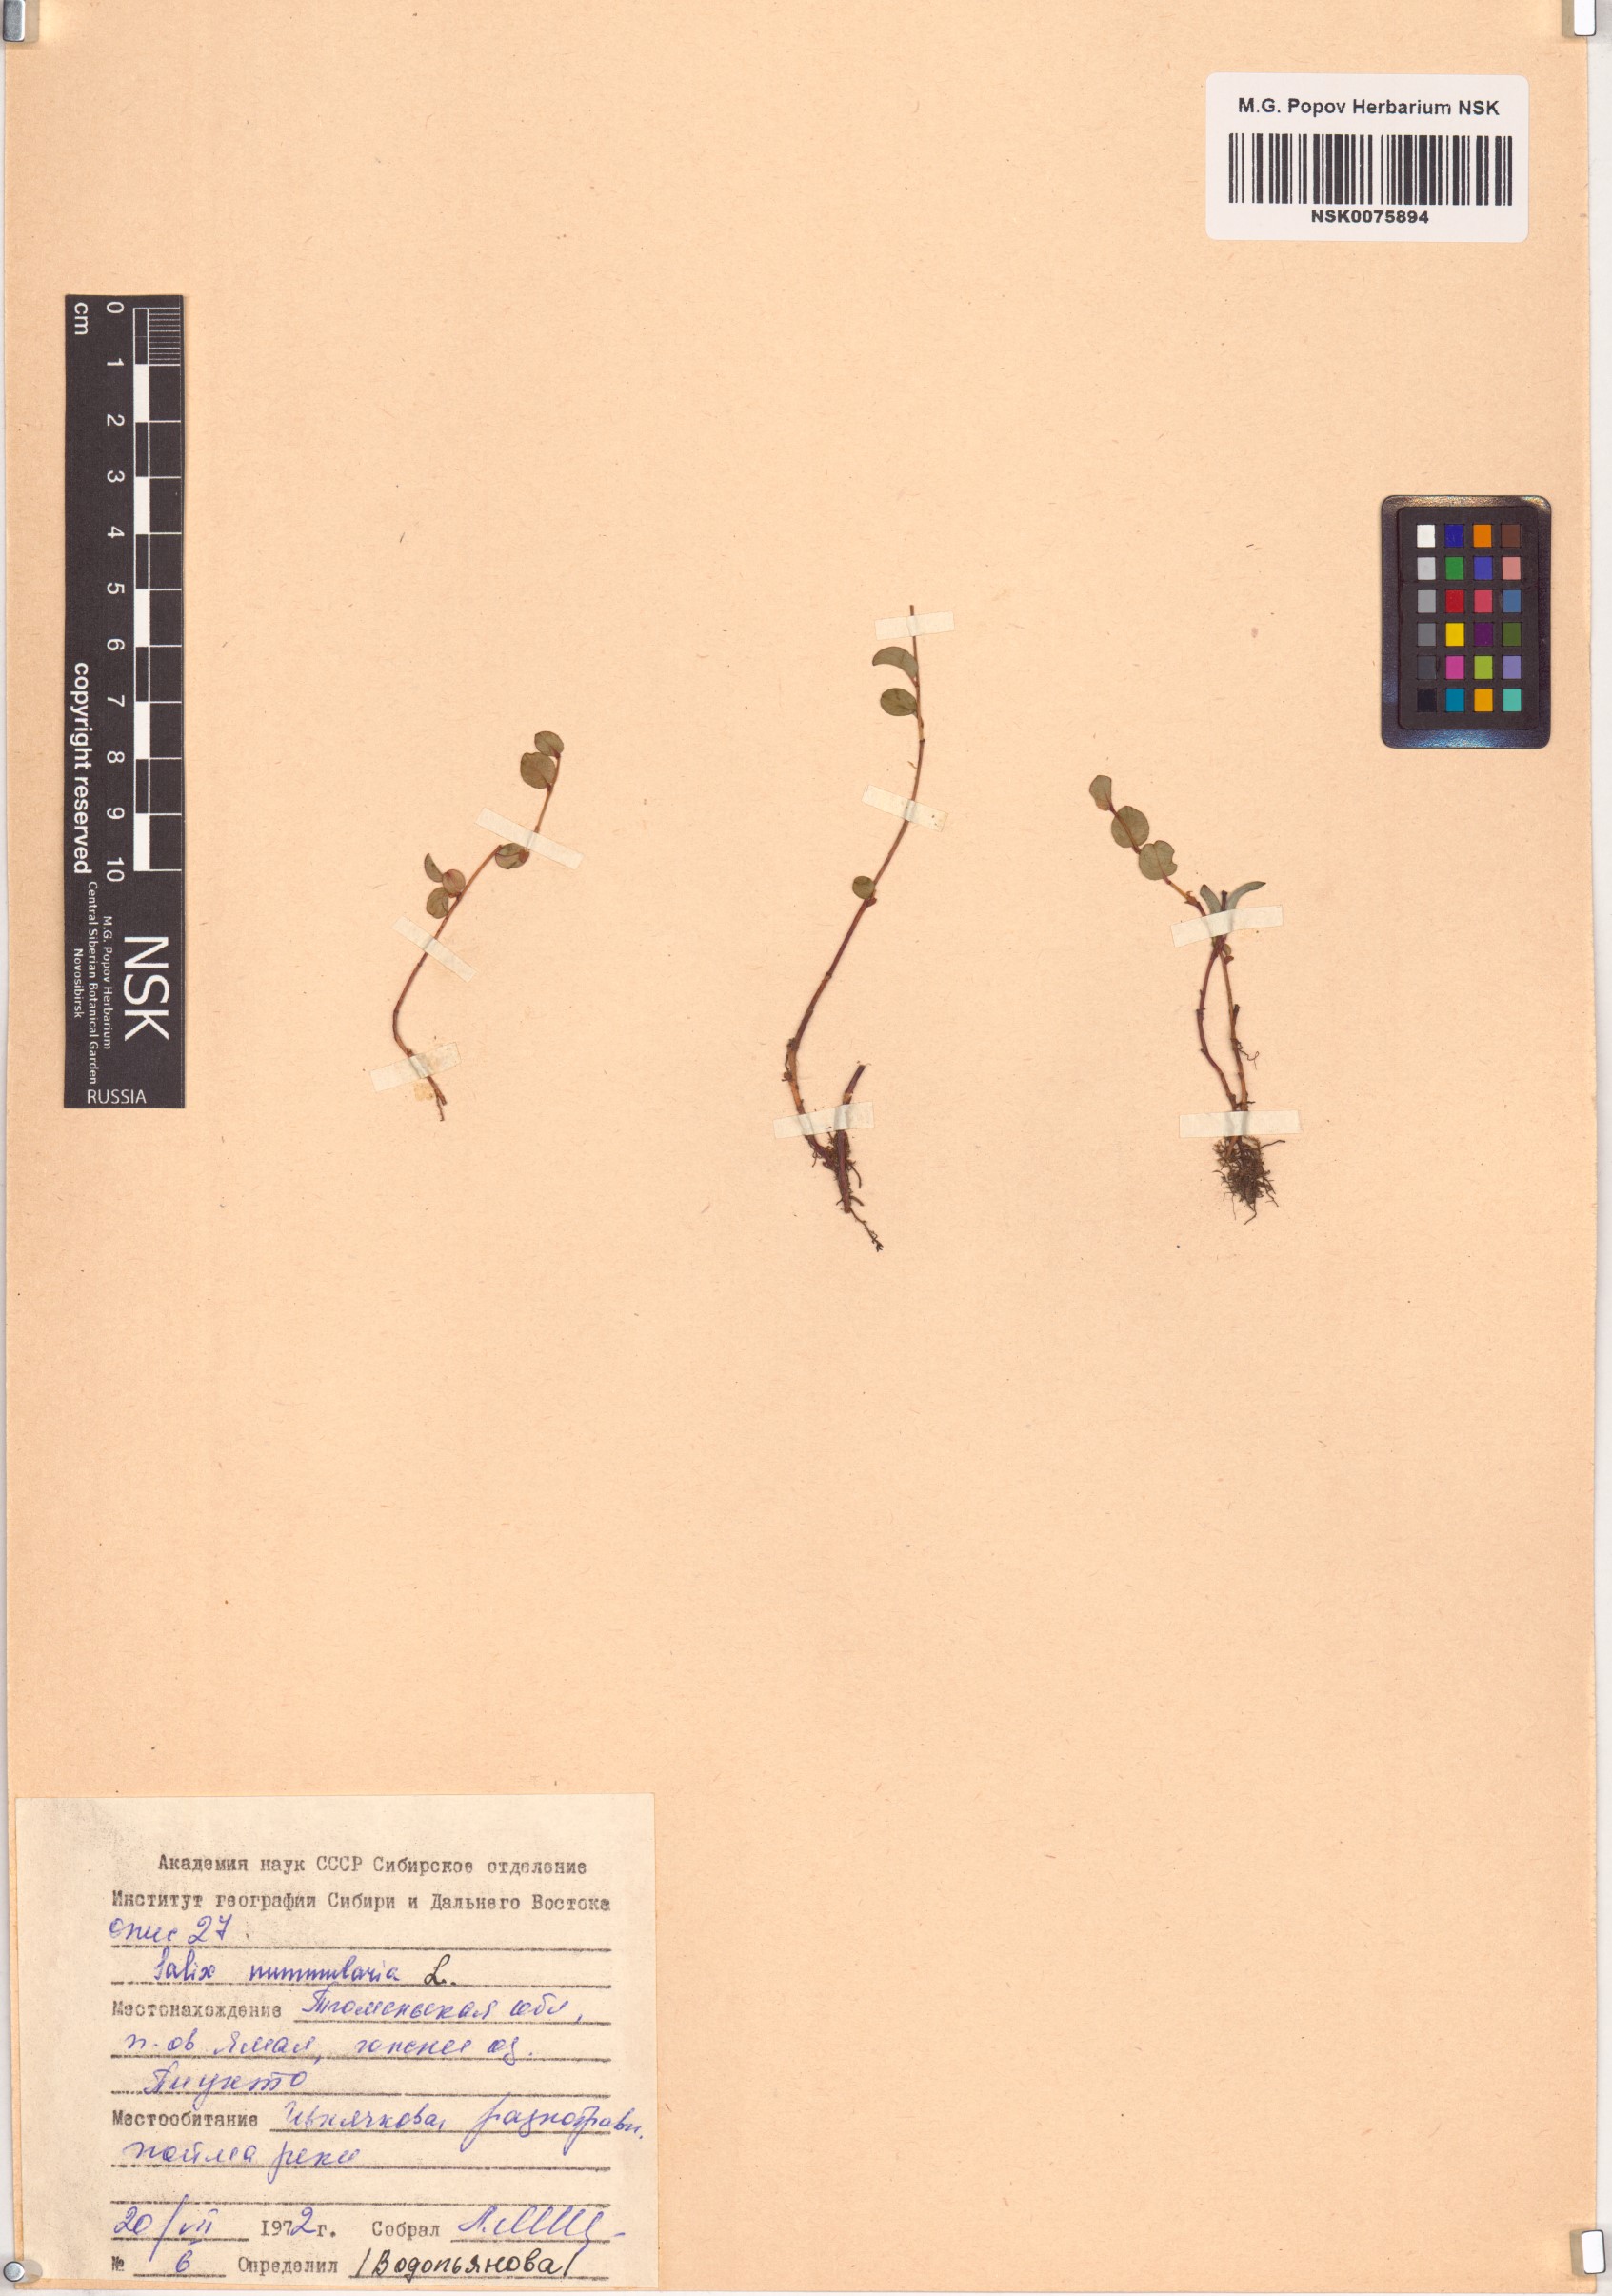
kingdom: Plantae
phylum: Tracheophyta
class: Magnoliopsida
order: Malpighiales
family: Salicaceae
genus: Salix
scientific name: Salix nummularia
